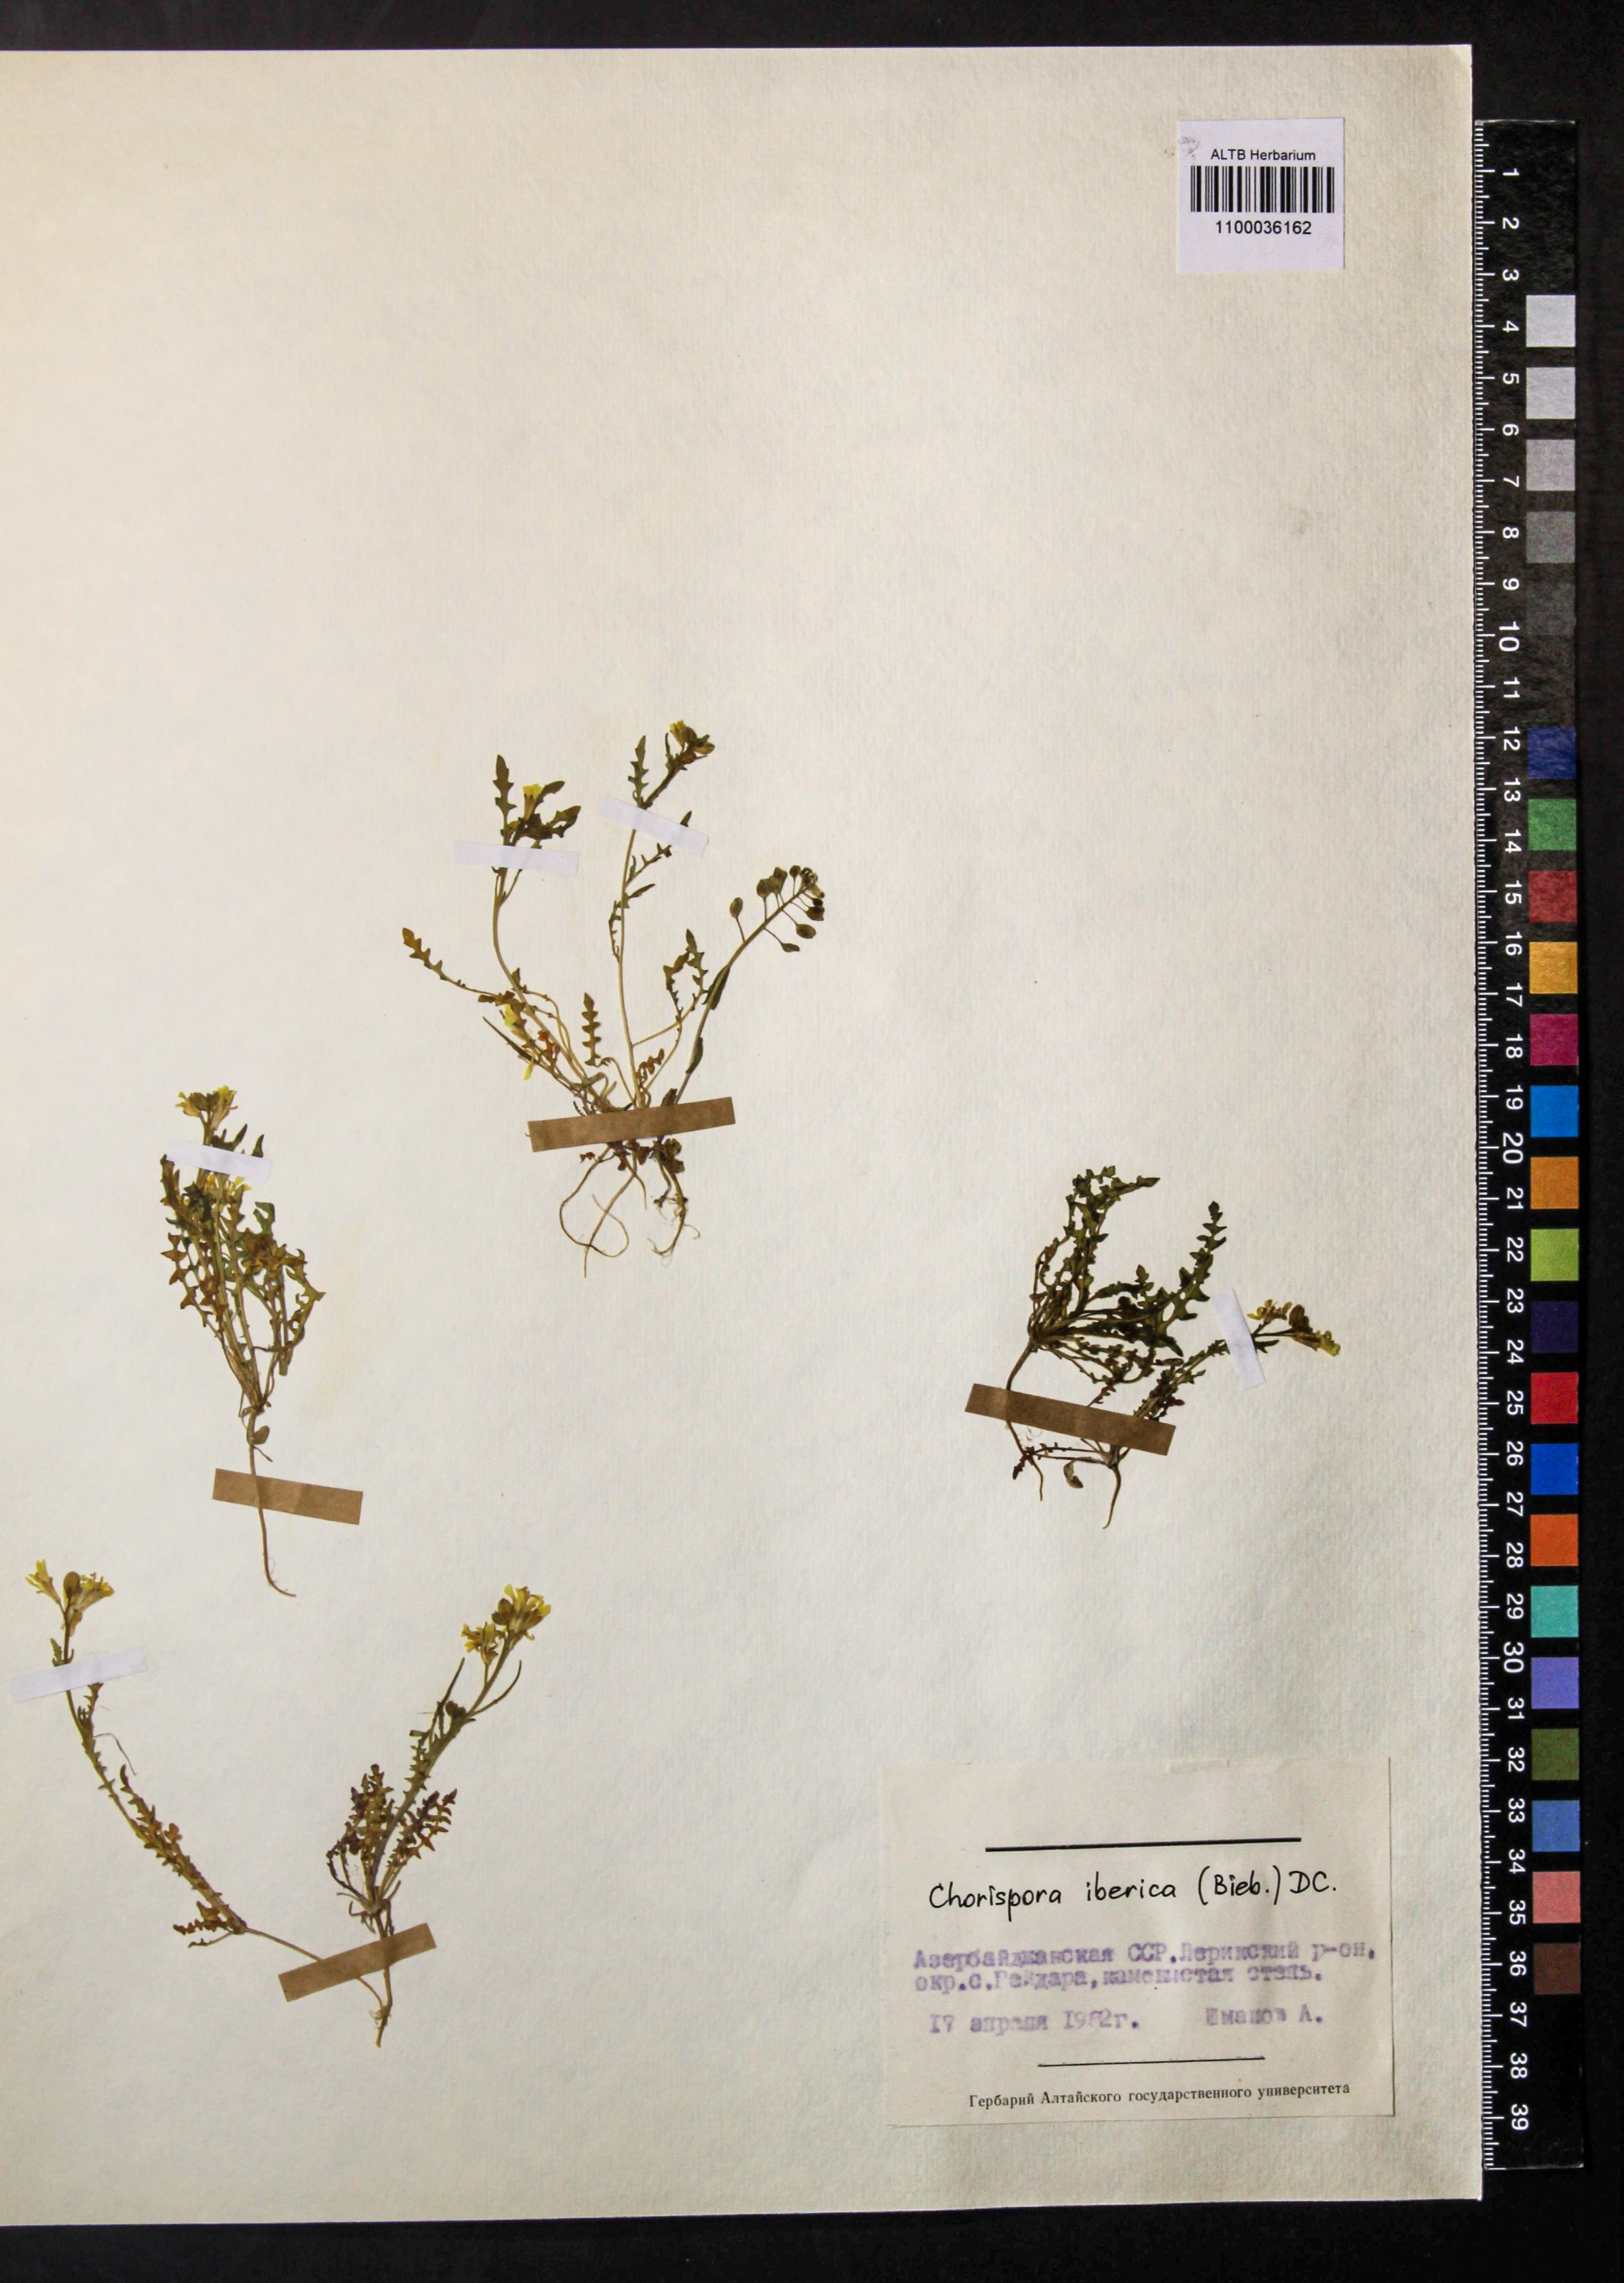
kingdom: Plantae
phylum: Tracheophyta
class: Magnoliopsida
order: Brassicales
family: Brassicaceae
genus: Chorispora
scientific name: Chorispora iberica
